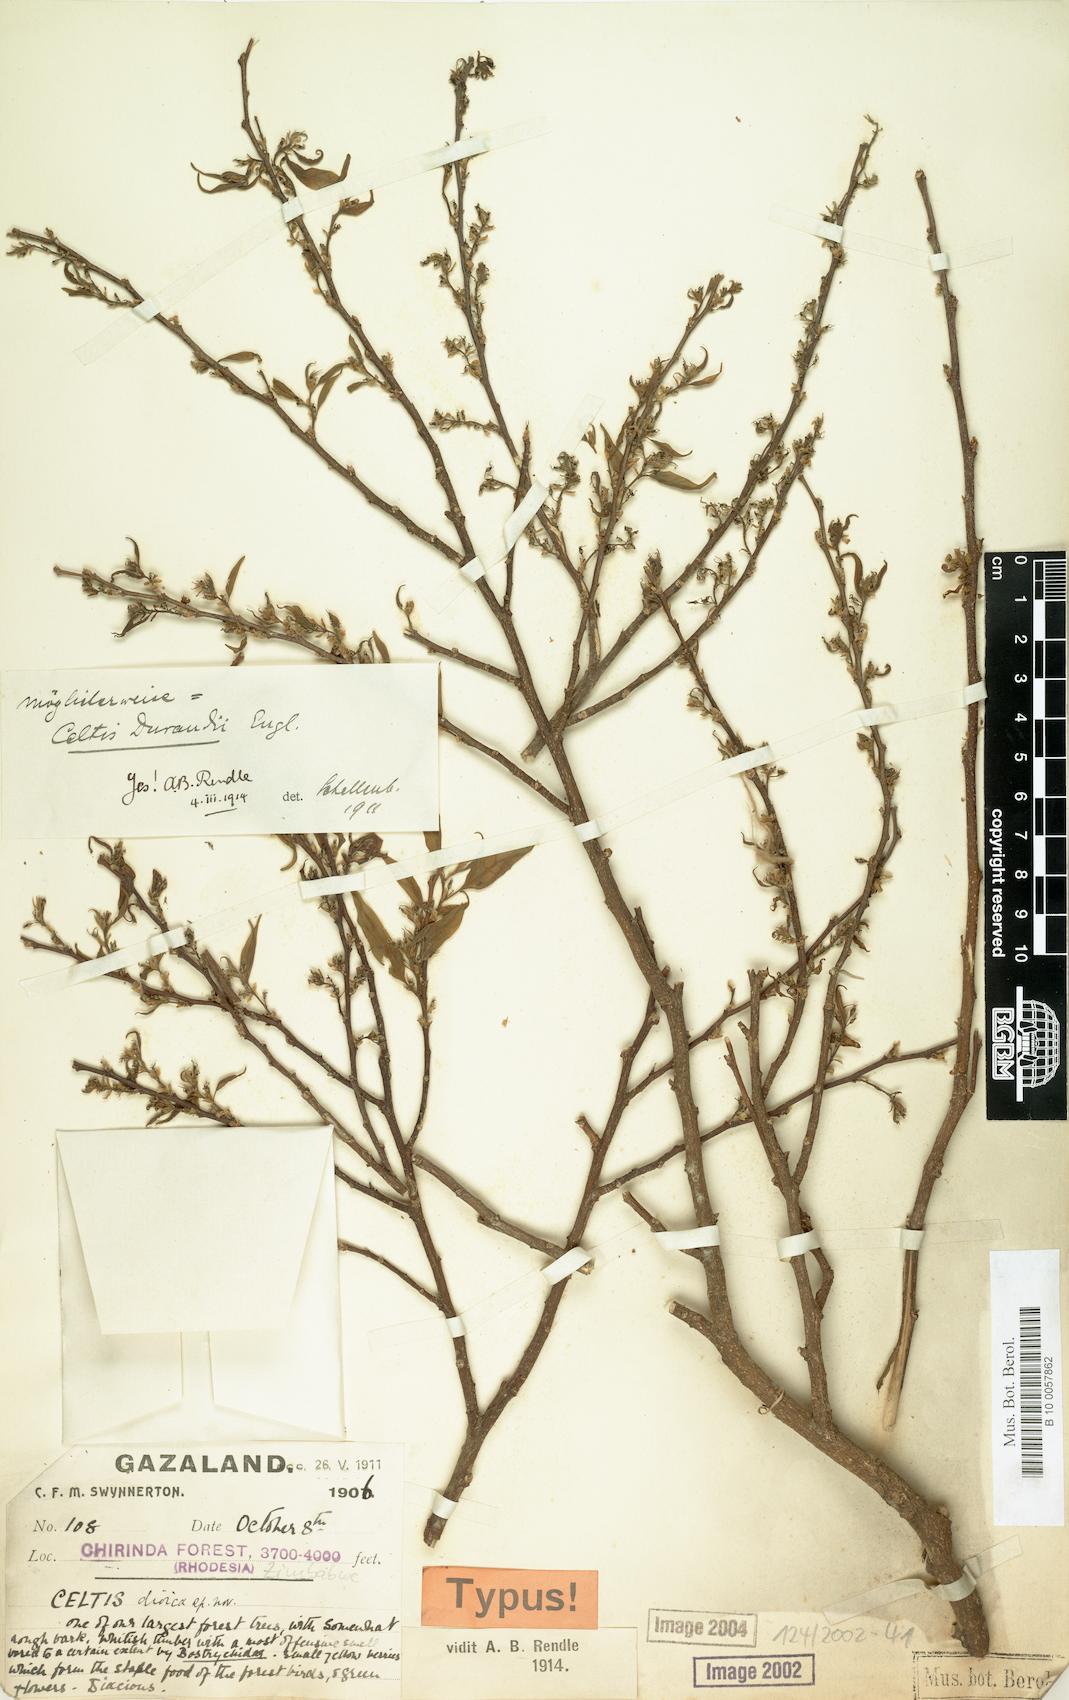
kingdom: Plantae
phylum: Tracheophyta
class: Magnoliopsida
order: Rosales
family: Cannabaceae
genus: Celtis
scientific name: Celtis gomphophylla
